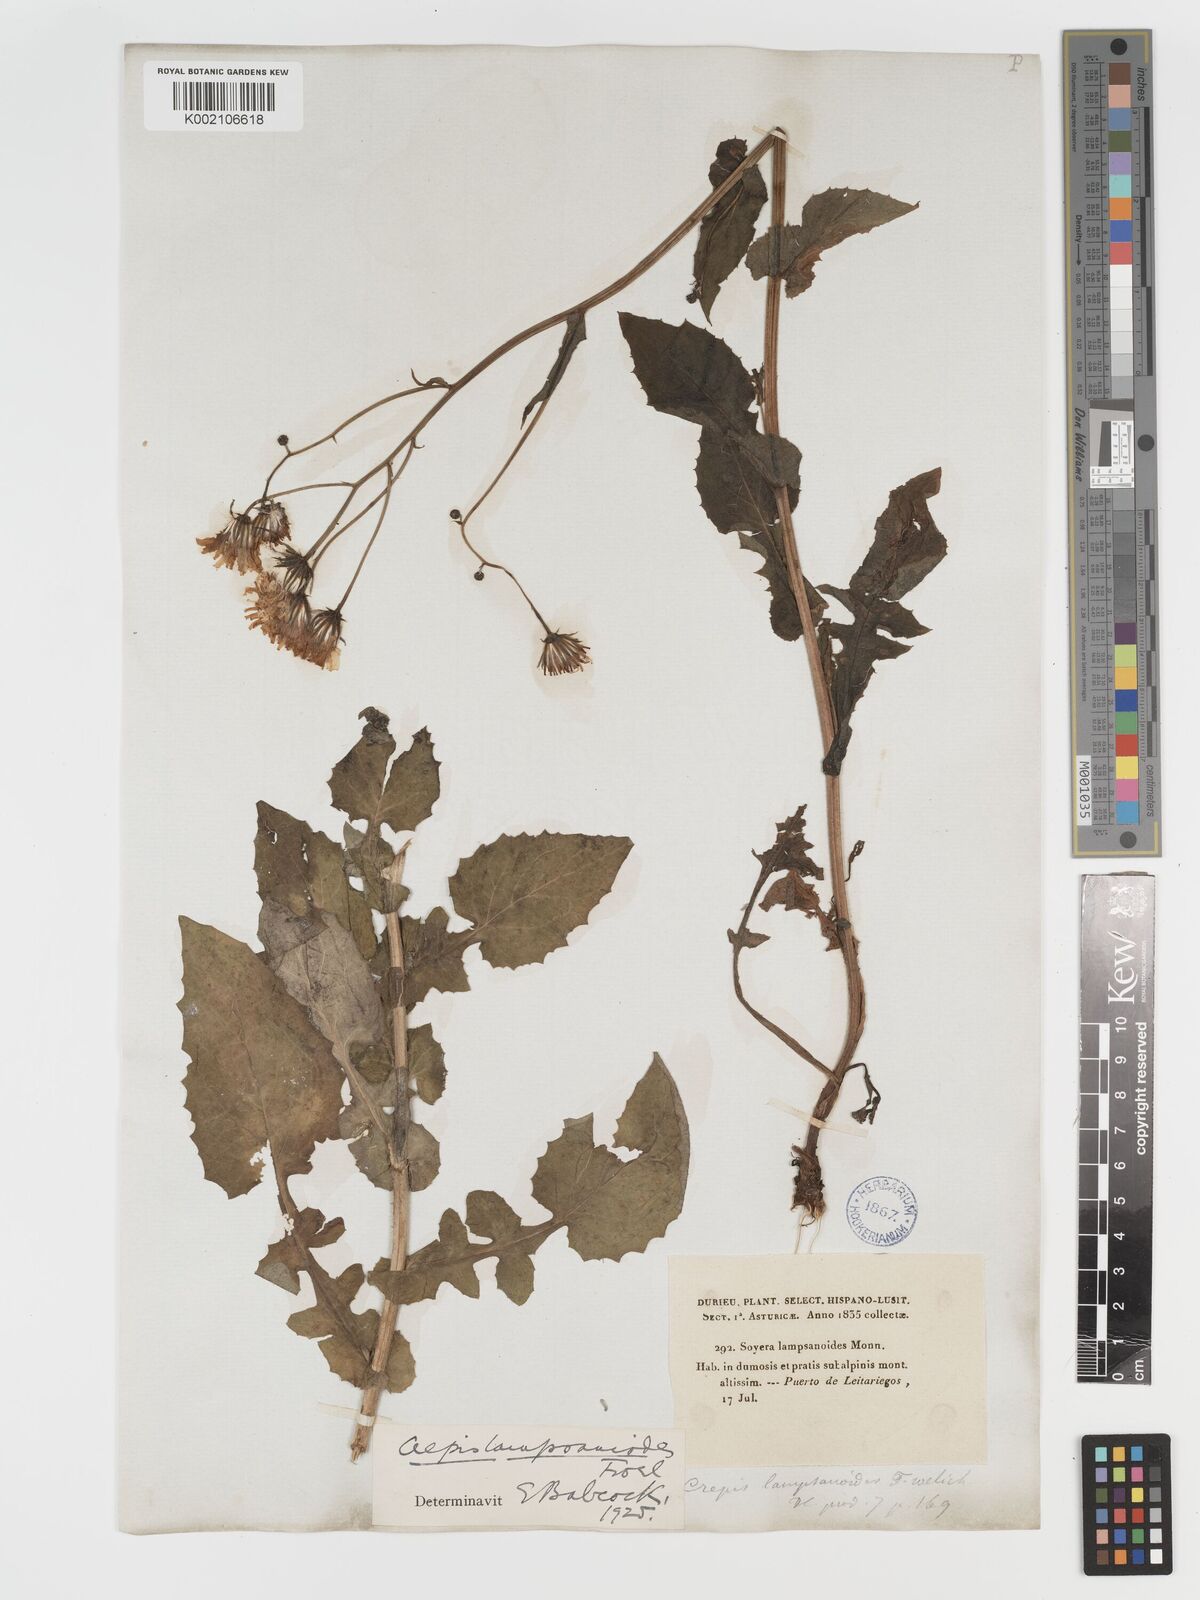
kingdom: Plantae
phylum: Tracheophyta
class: Magnoliopsida
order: Asterales
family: Asteraceae
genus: Crepis
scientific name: Crepis lampsanoides
